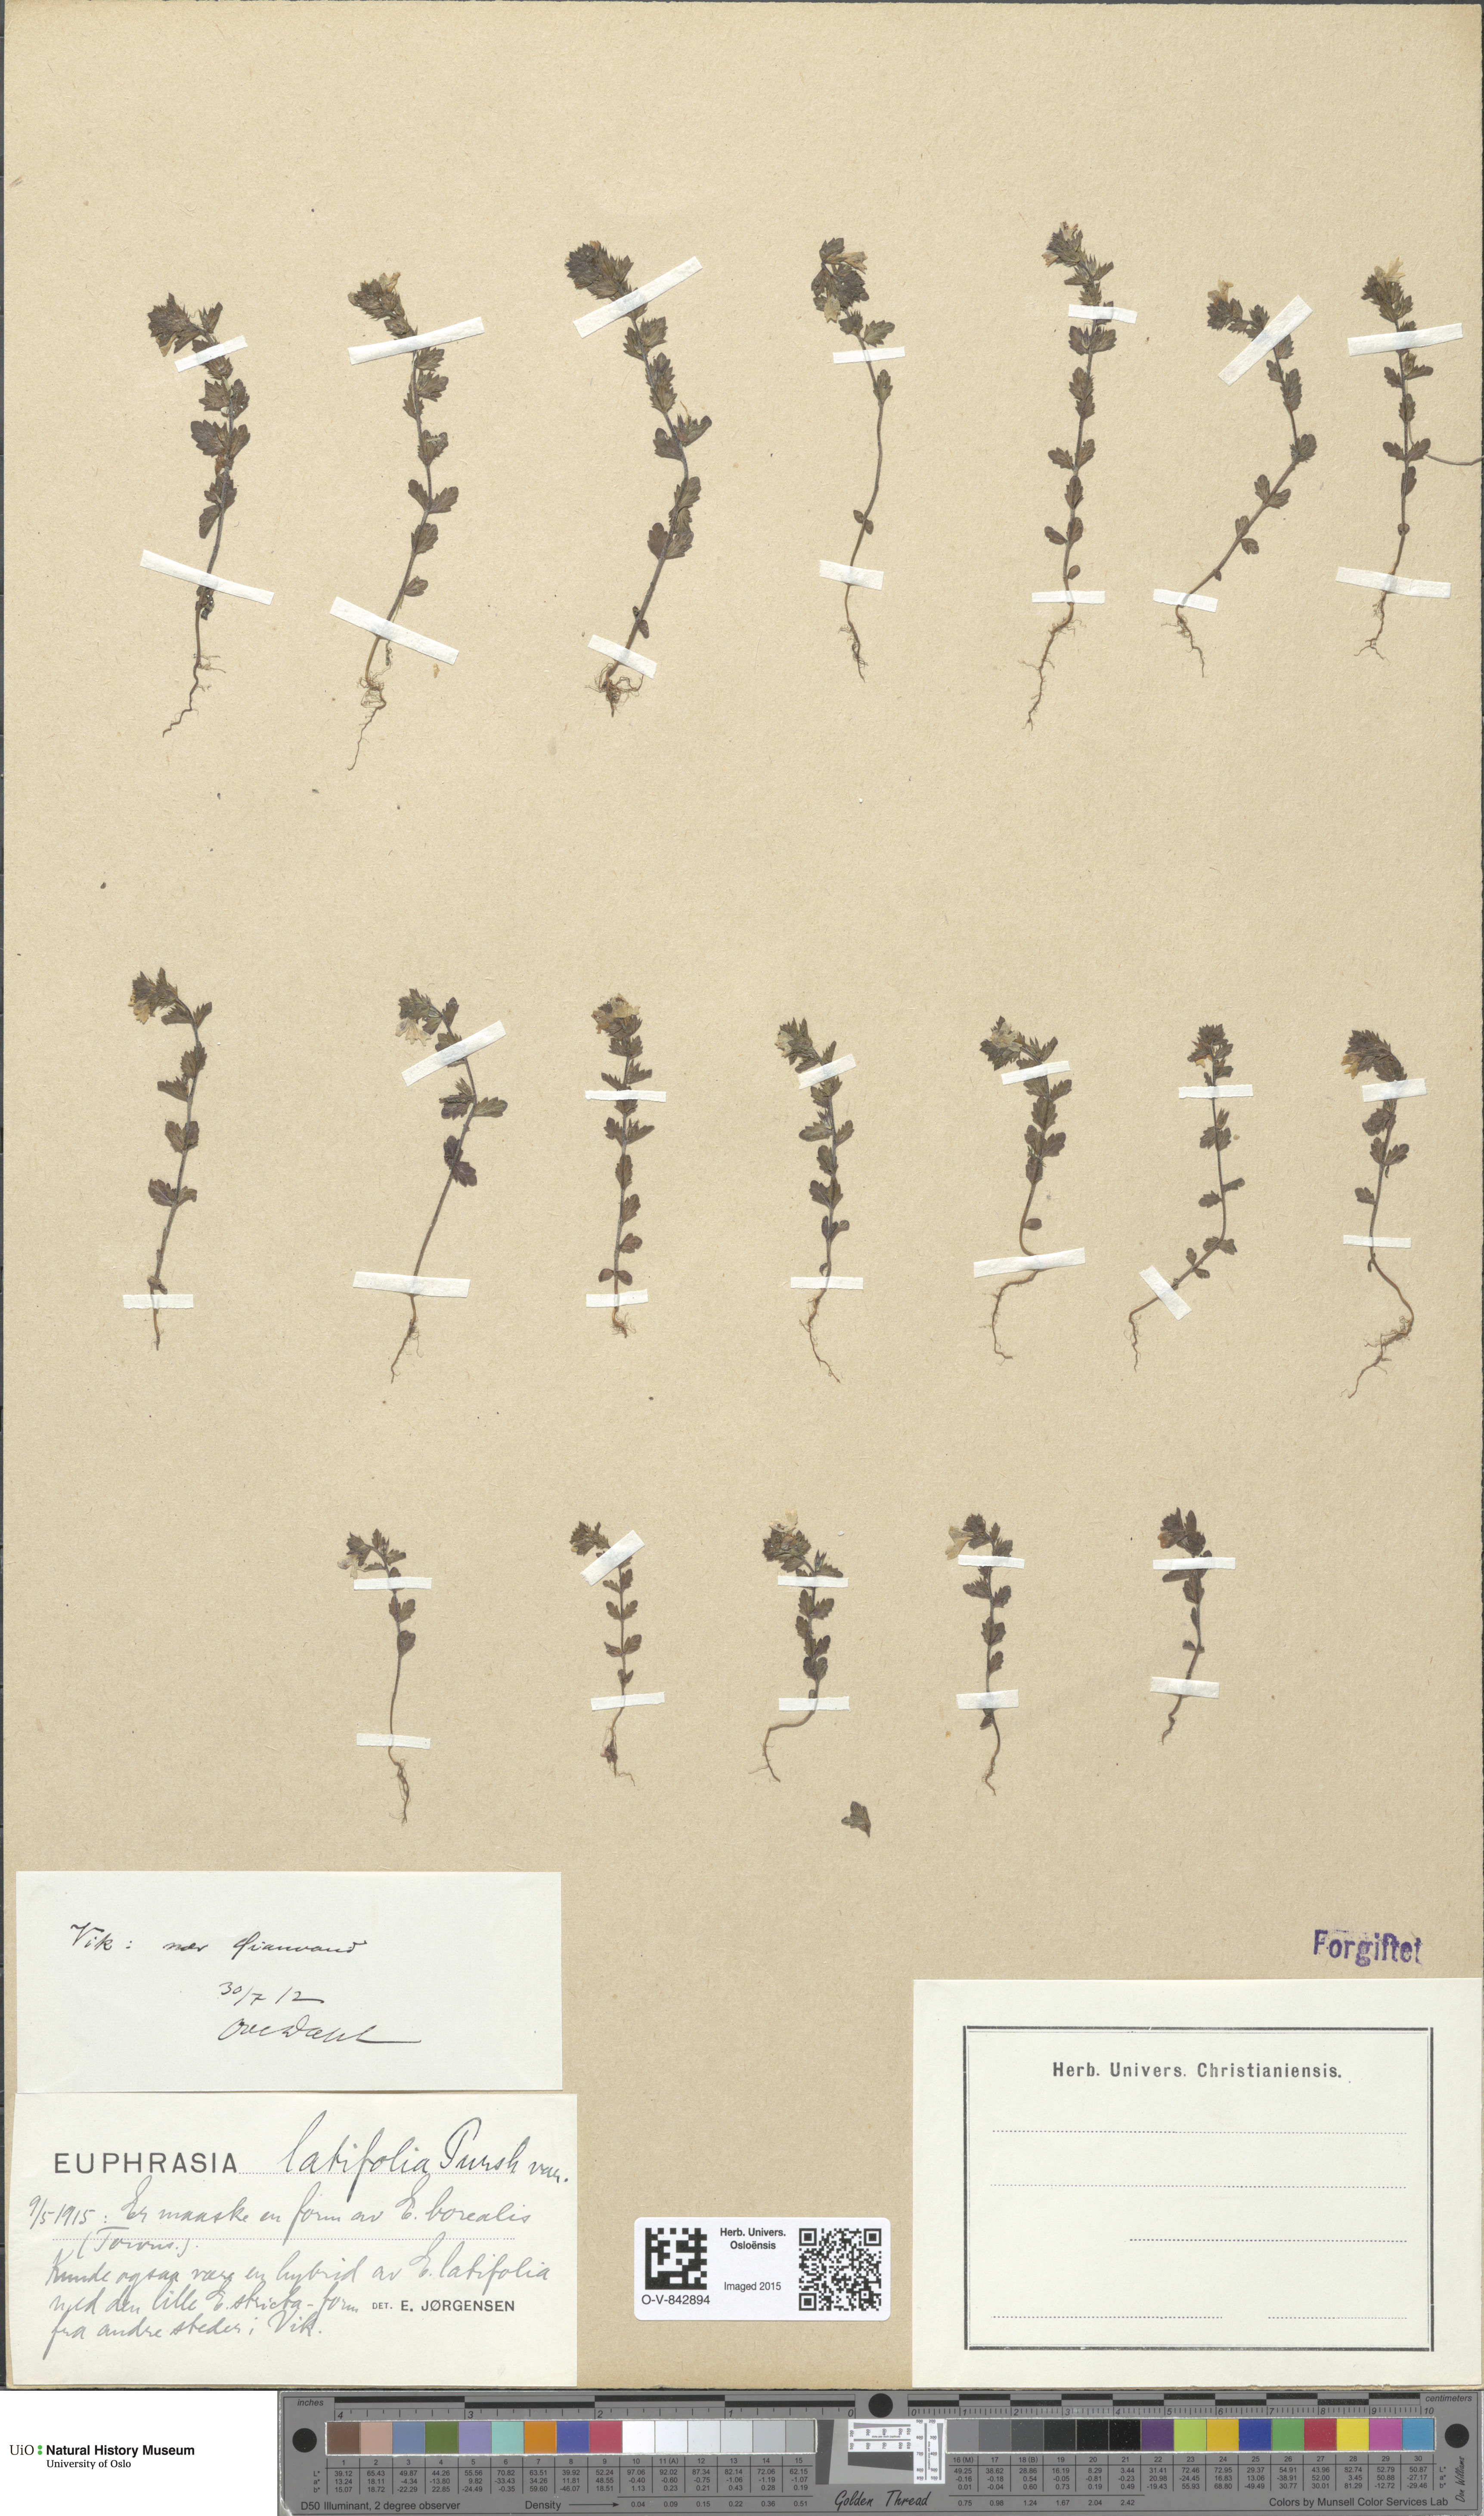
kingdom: Plantae
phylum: Tracheophyta
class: Magnoliopsida
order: Lamiales
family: Orobanchaceae
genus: Euphrasia
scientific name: Euphrasia wettsteinii
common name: Wettstein's eyebright
